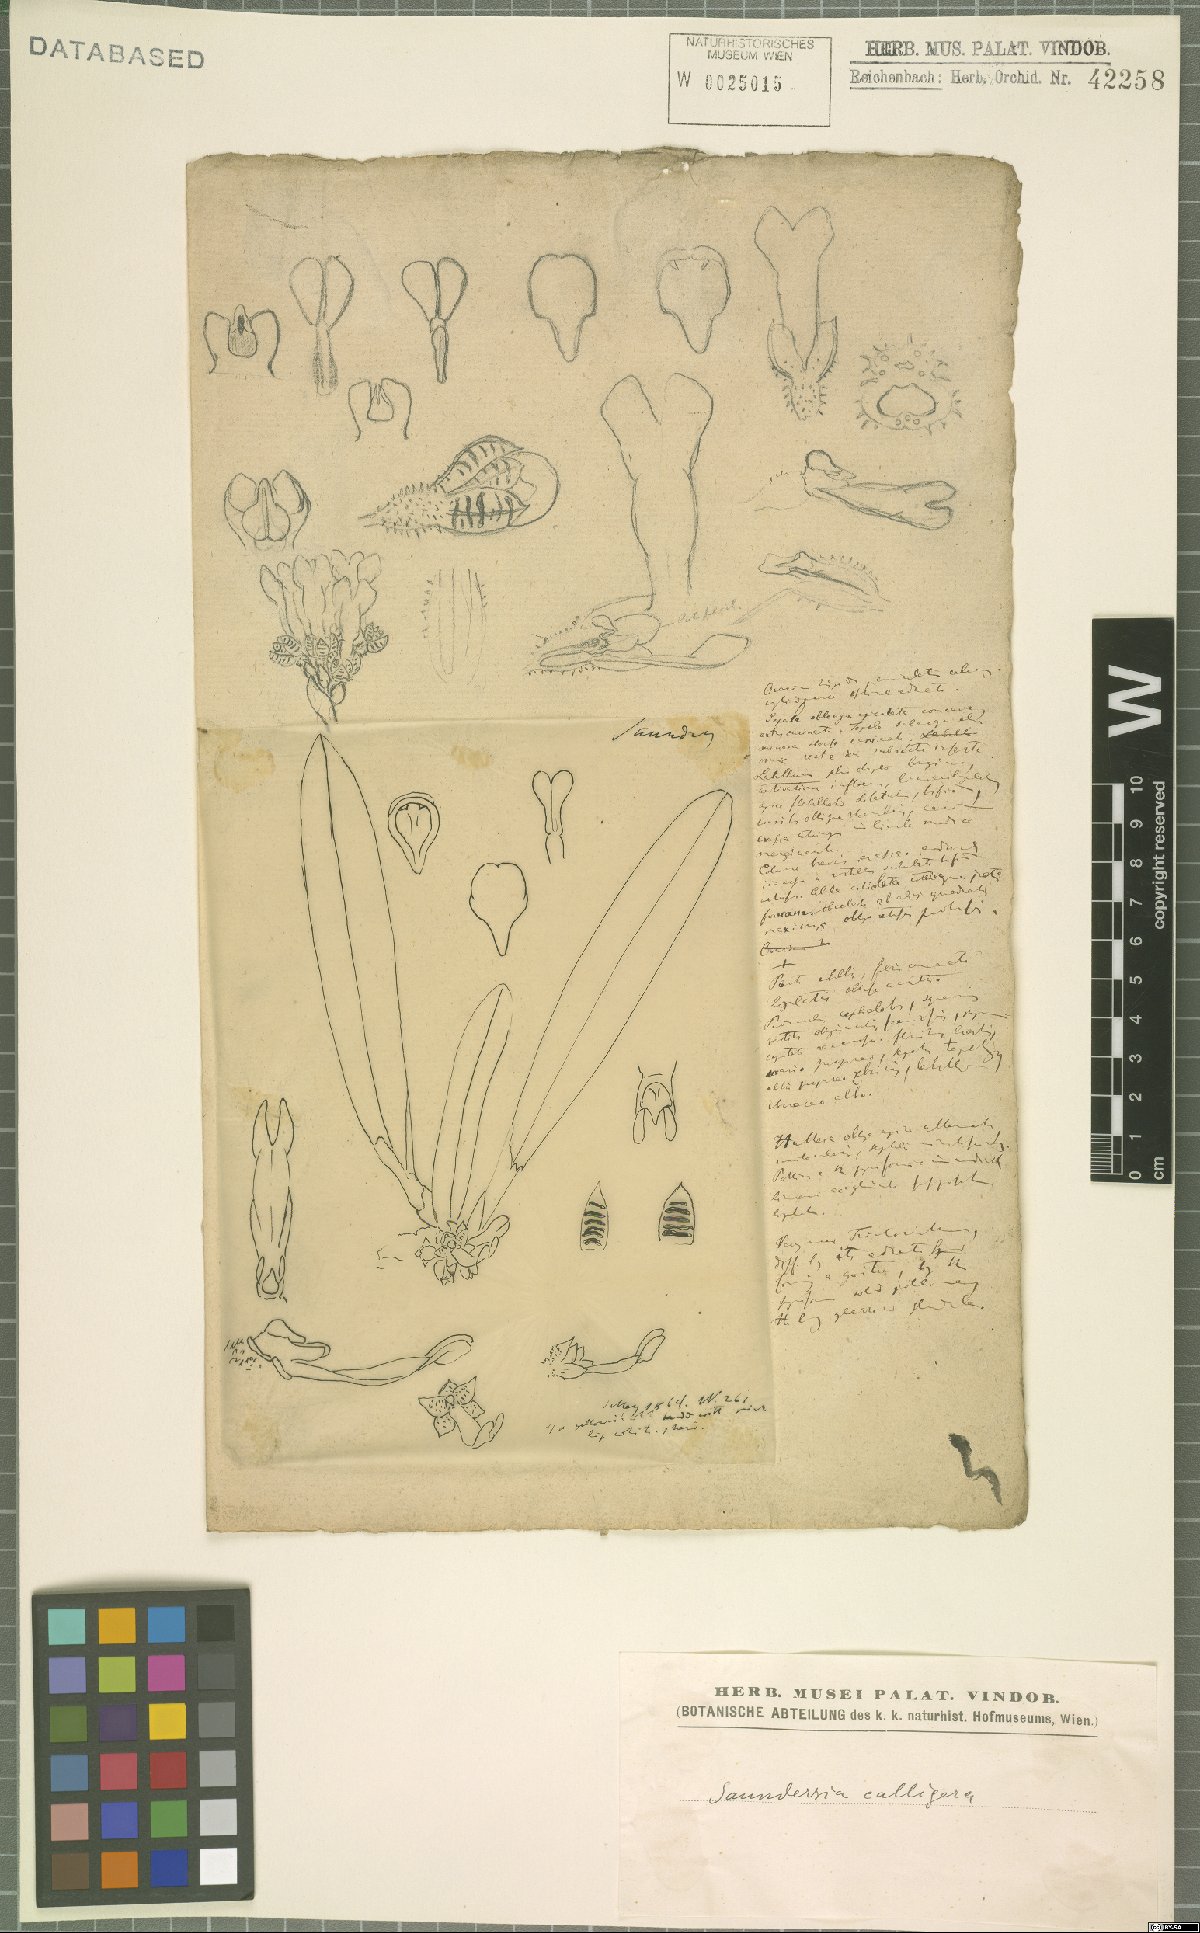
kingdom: Plantae
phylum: Tracheophyta
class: Liliopsida
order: Asparagales
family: Orchidaceae
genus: Saundersia
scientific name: Saundersia mirabilis
